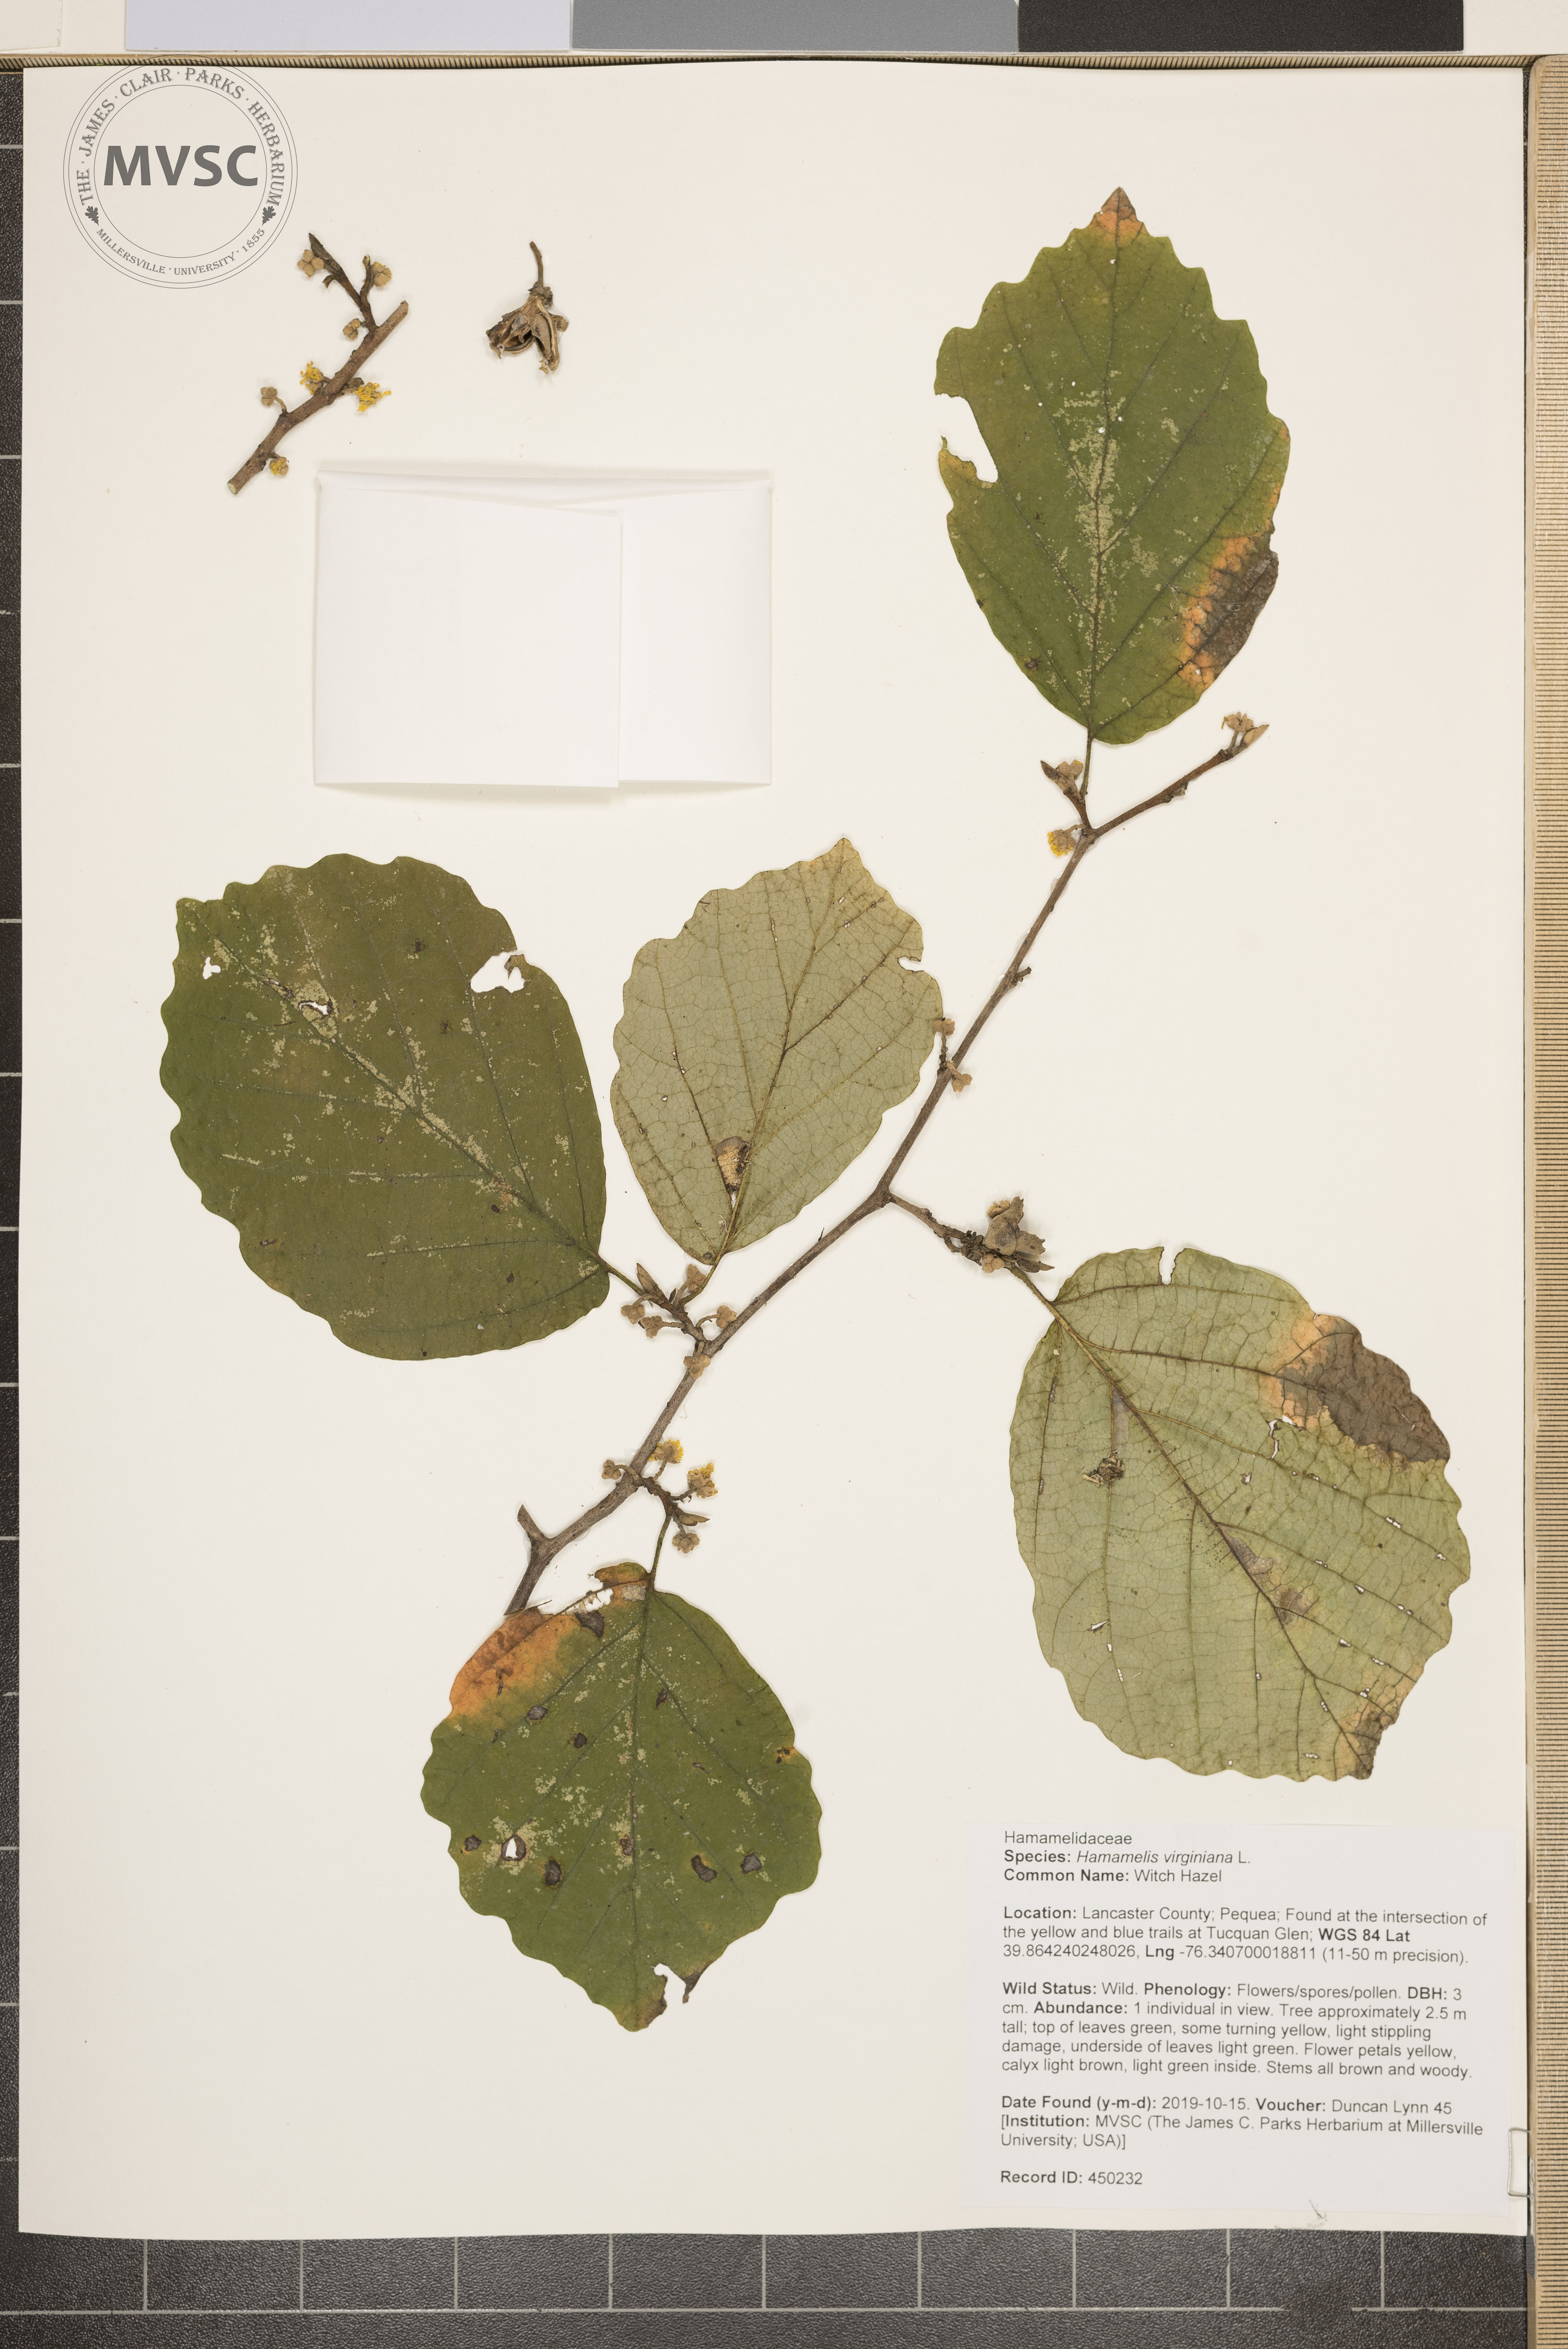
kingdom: Plantae
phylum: Tracheophyta
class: Magnoliopsida
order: Saxifragales
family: Hamamelidaceae
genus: Hamamelis
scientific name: Hamamelis virginiana
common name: Witch Hazel
